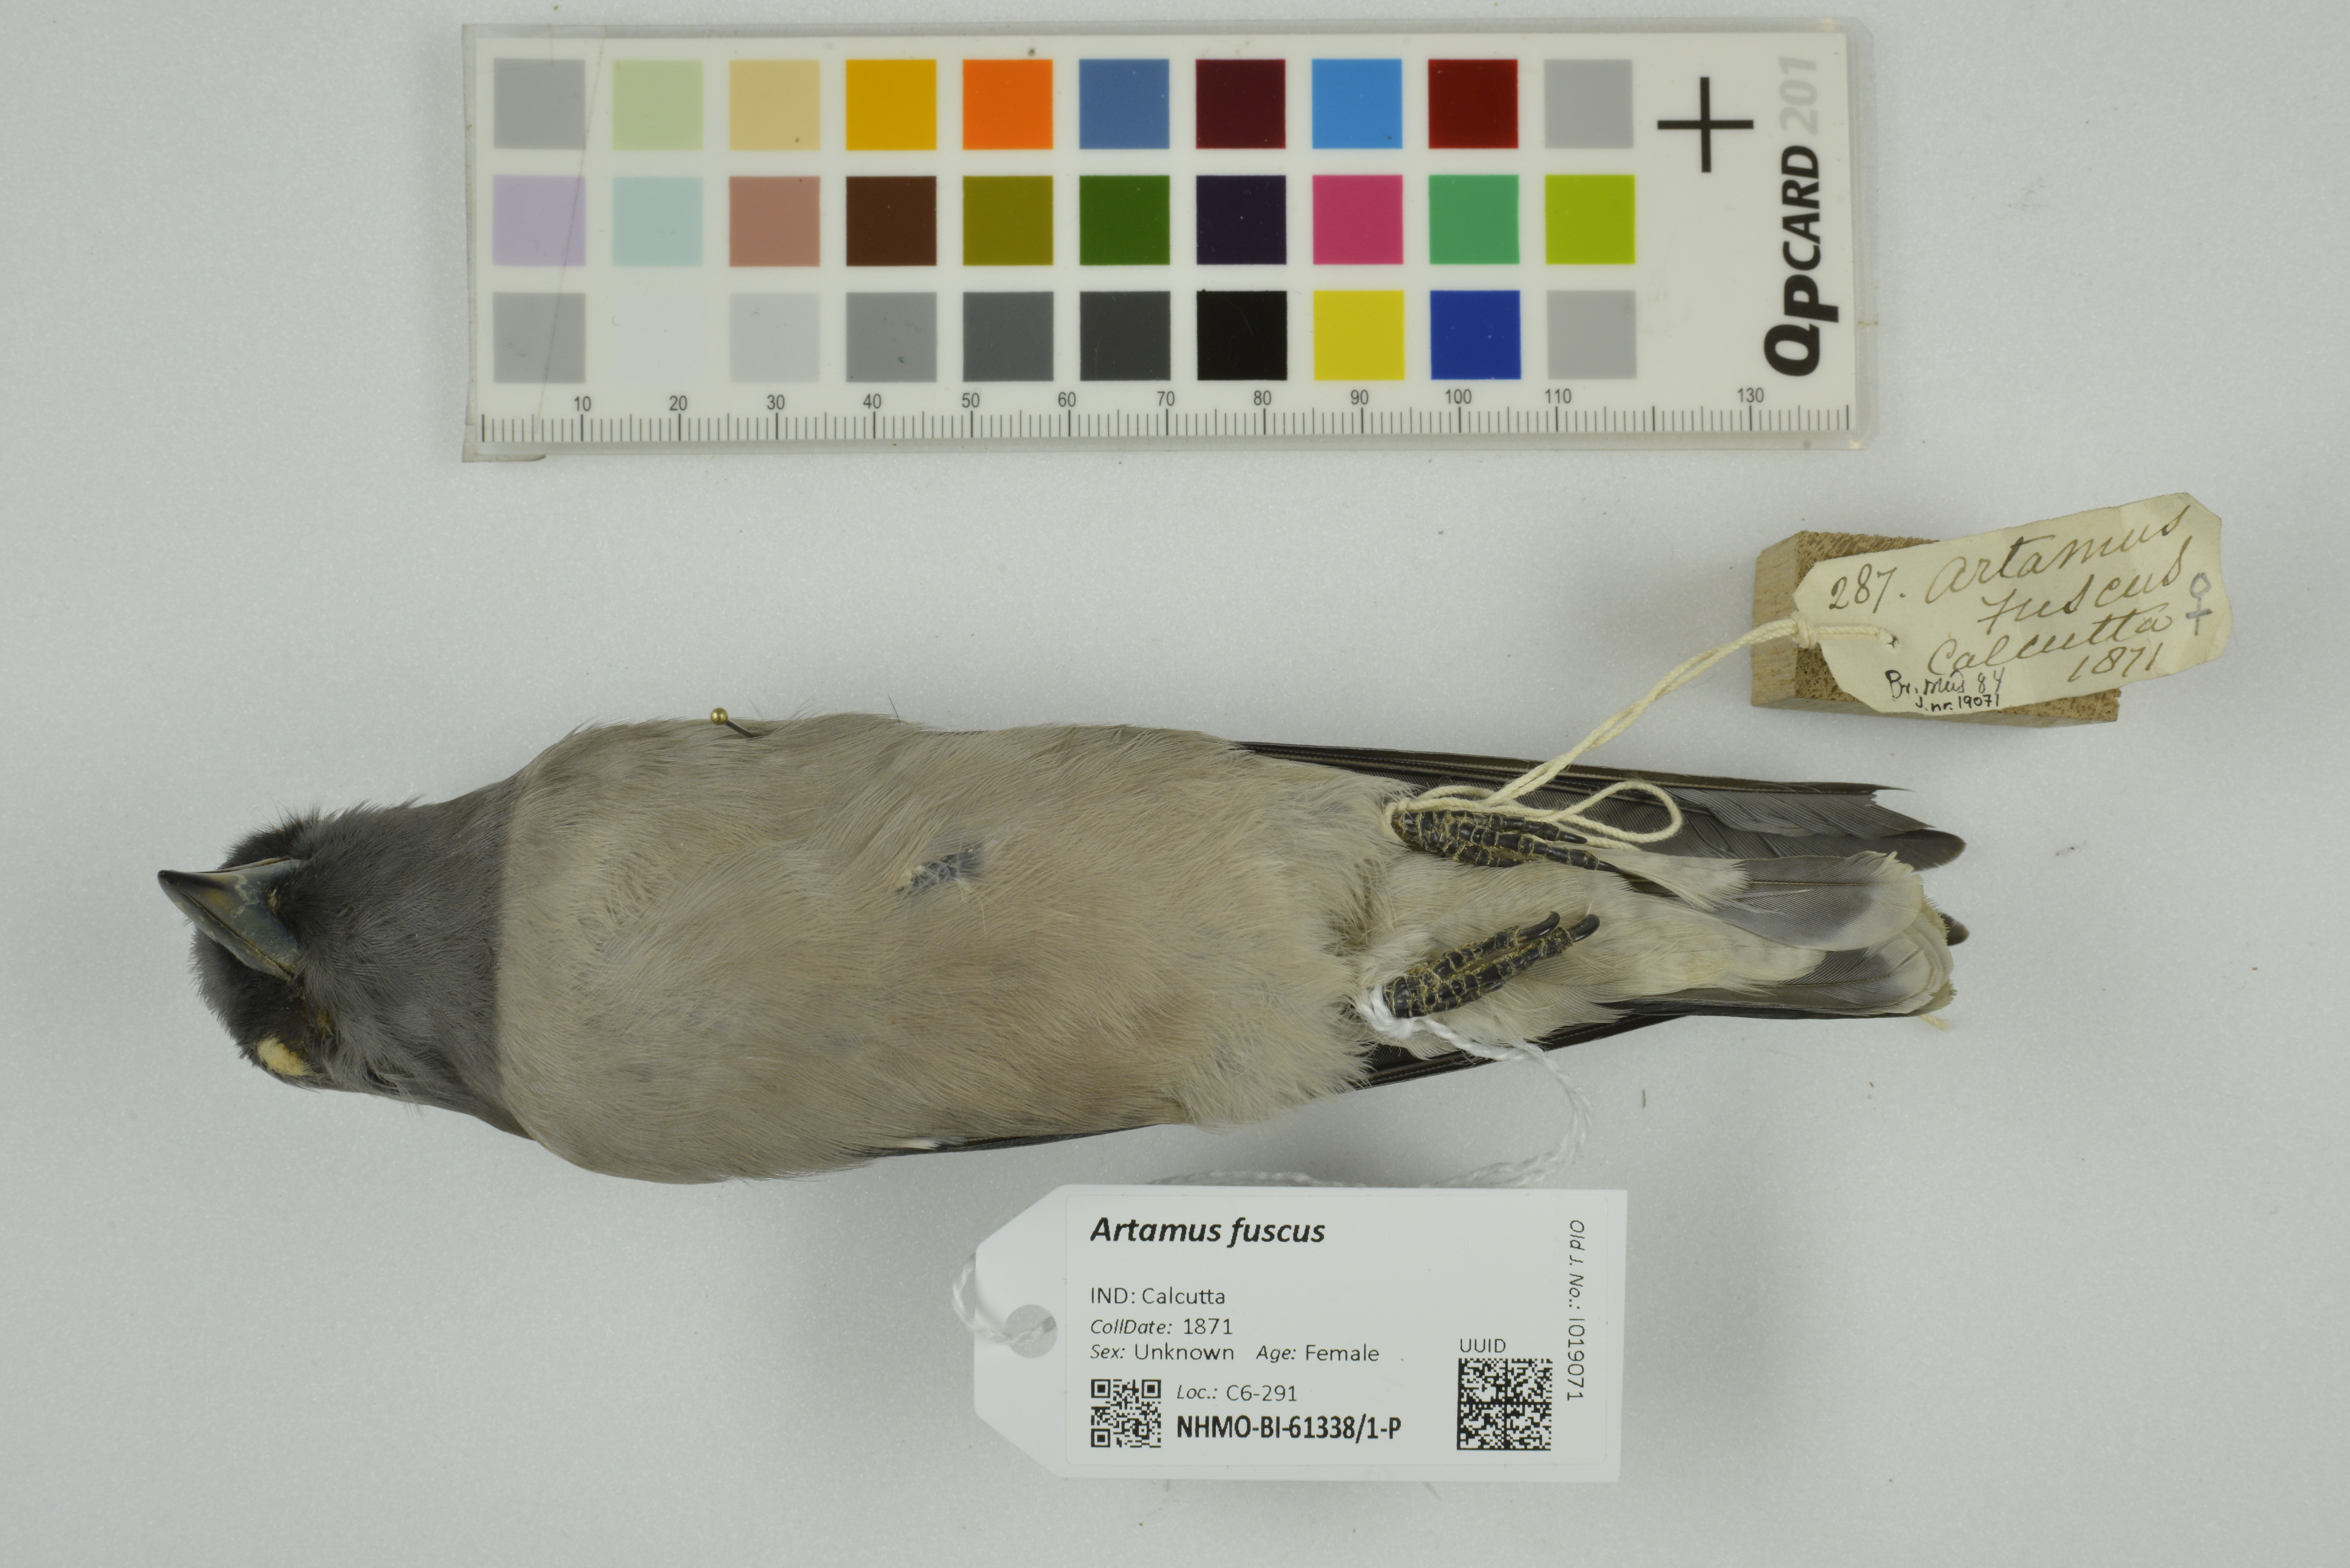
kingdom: Animalia
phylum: Chordata
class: Aves
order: Passeriformes
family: Artamidae
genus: Artamus
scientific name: Artamus fuscus
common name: Ashy woodswallow
